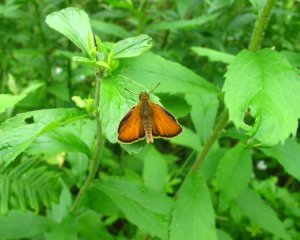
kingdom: Animalia
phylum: Arthropoda
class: Insecta
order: Lepidoptera
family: Hesperiidae
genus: Thymelicus
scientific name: Thymelicus lineola
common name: European Skipper
